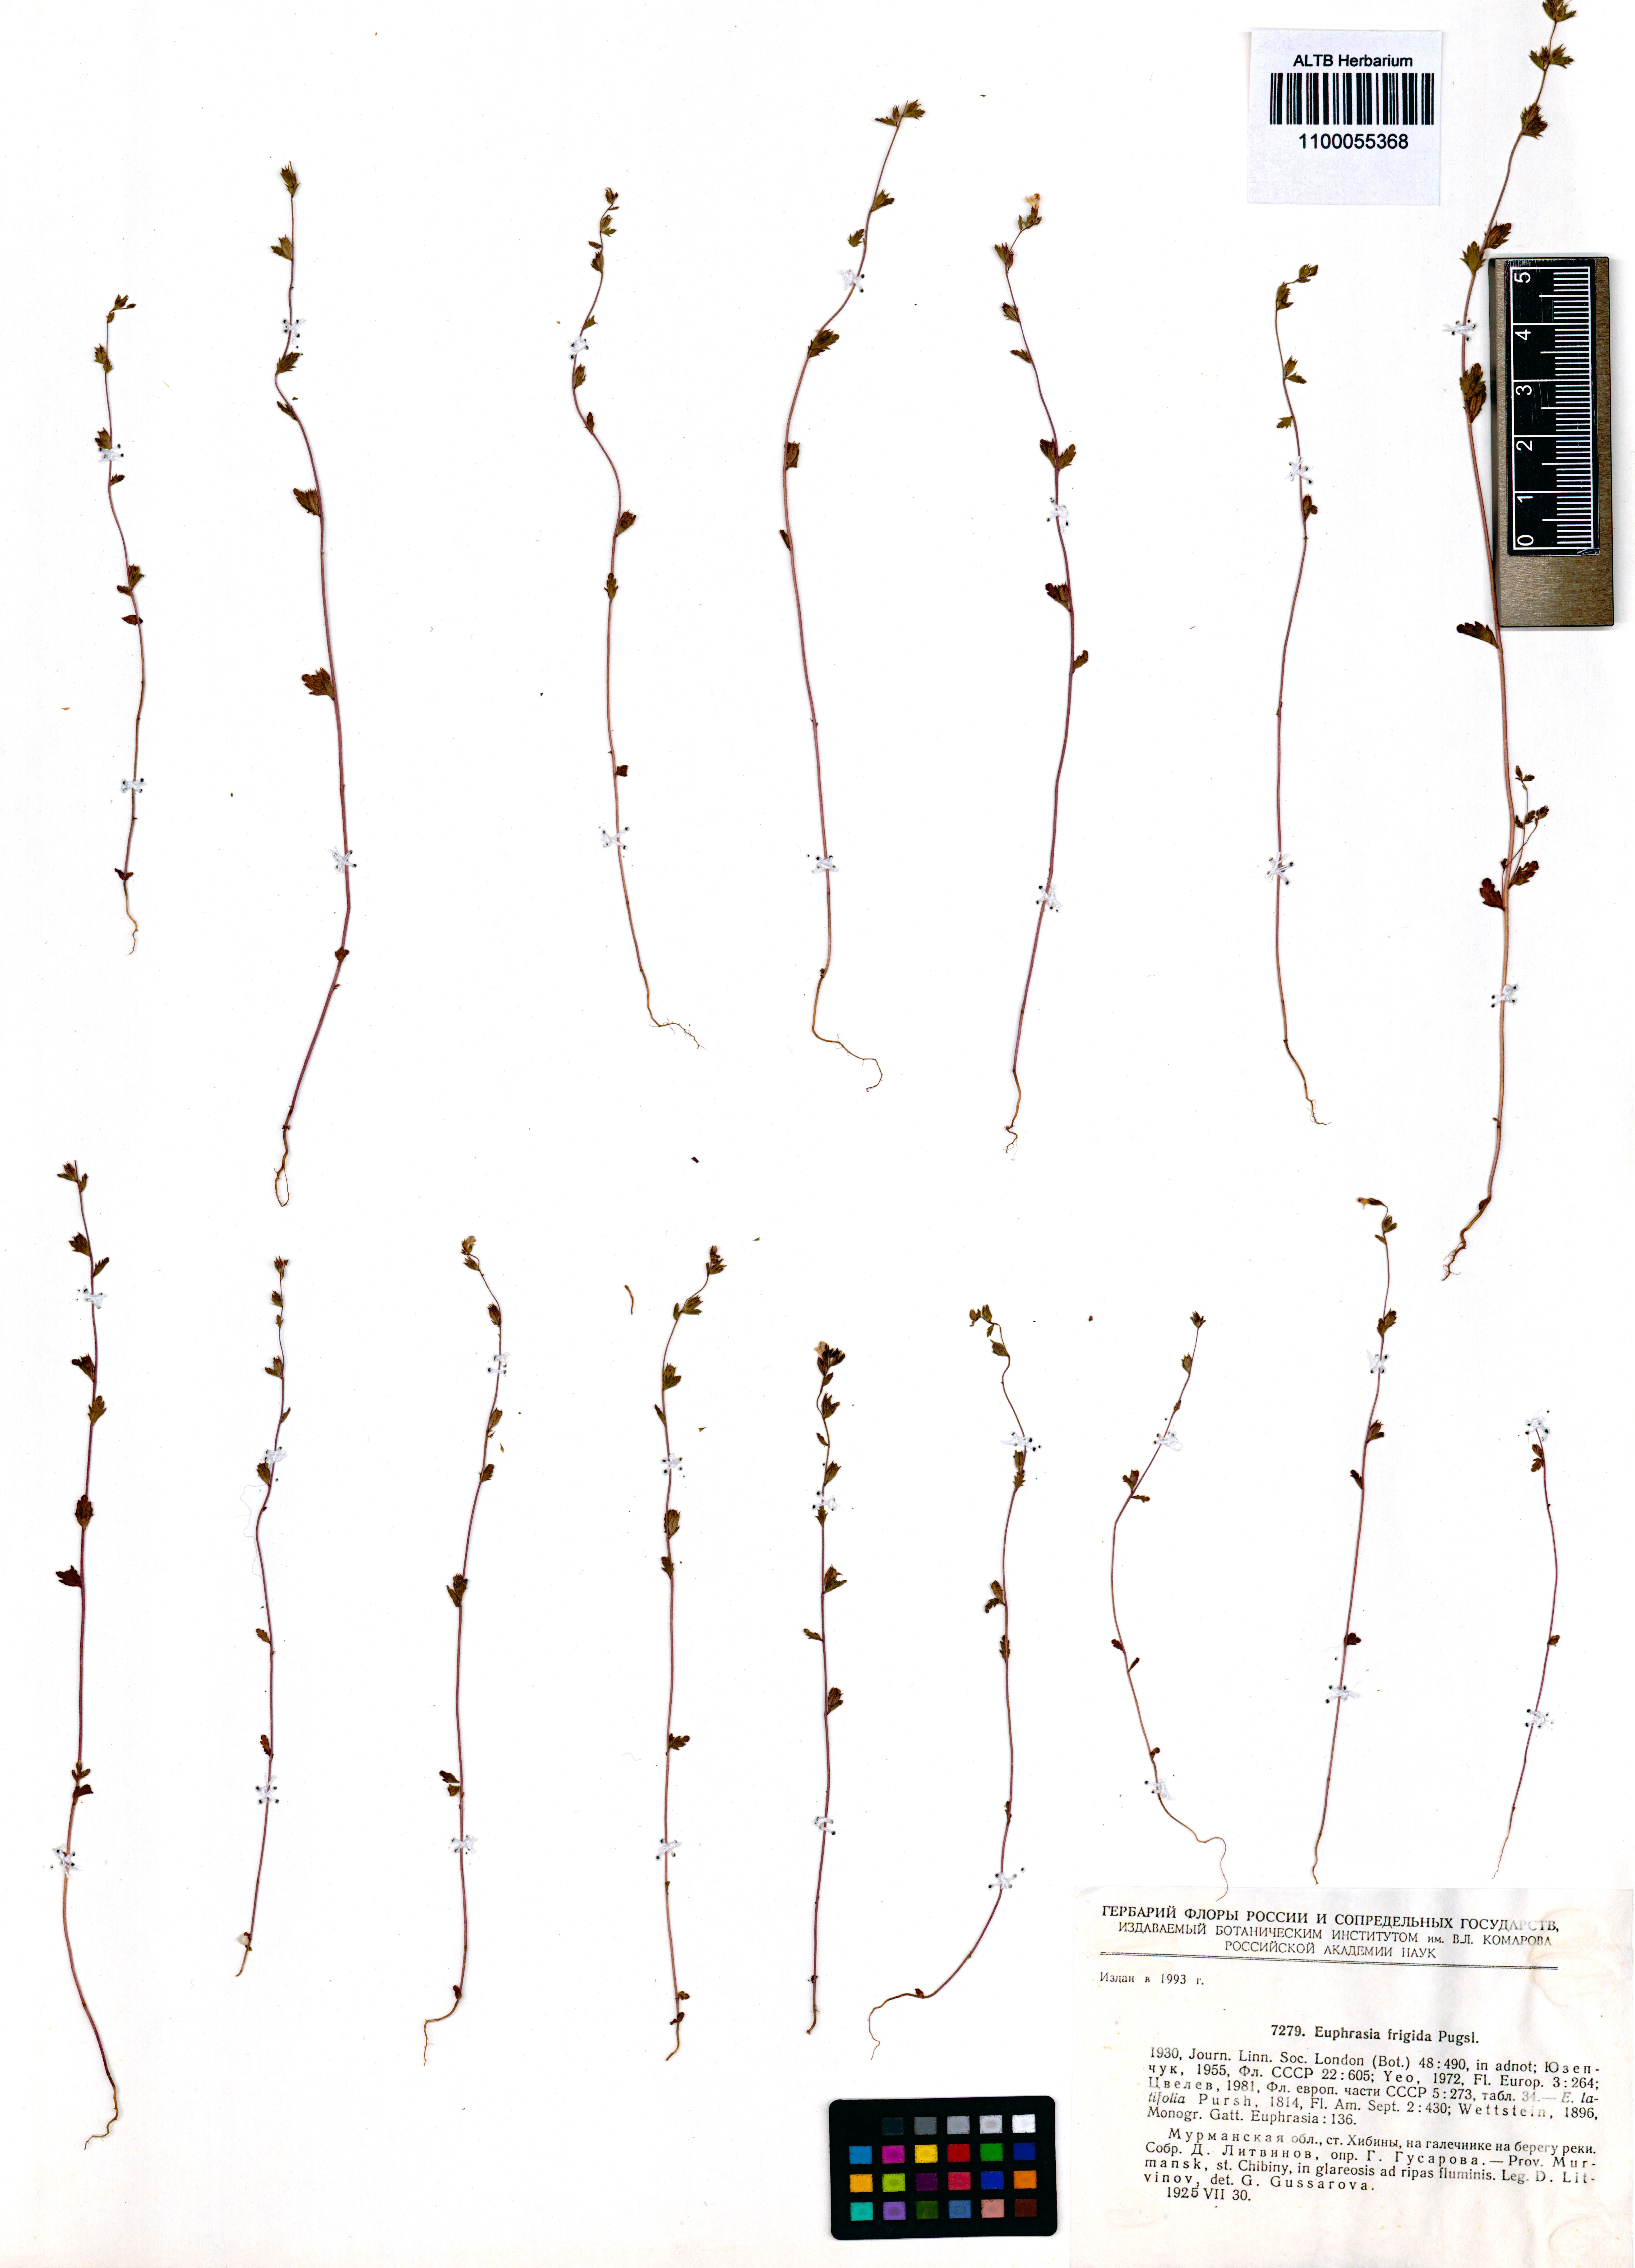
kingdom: Plantae
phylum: Tracheophyta
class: Magnoliopsida
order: Lamiales
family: Orobanchaceae
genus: Euphrasia
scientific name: Euphrasia frigida
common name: An eyebright
